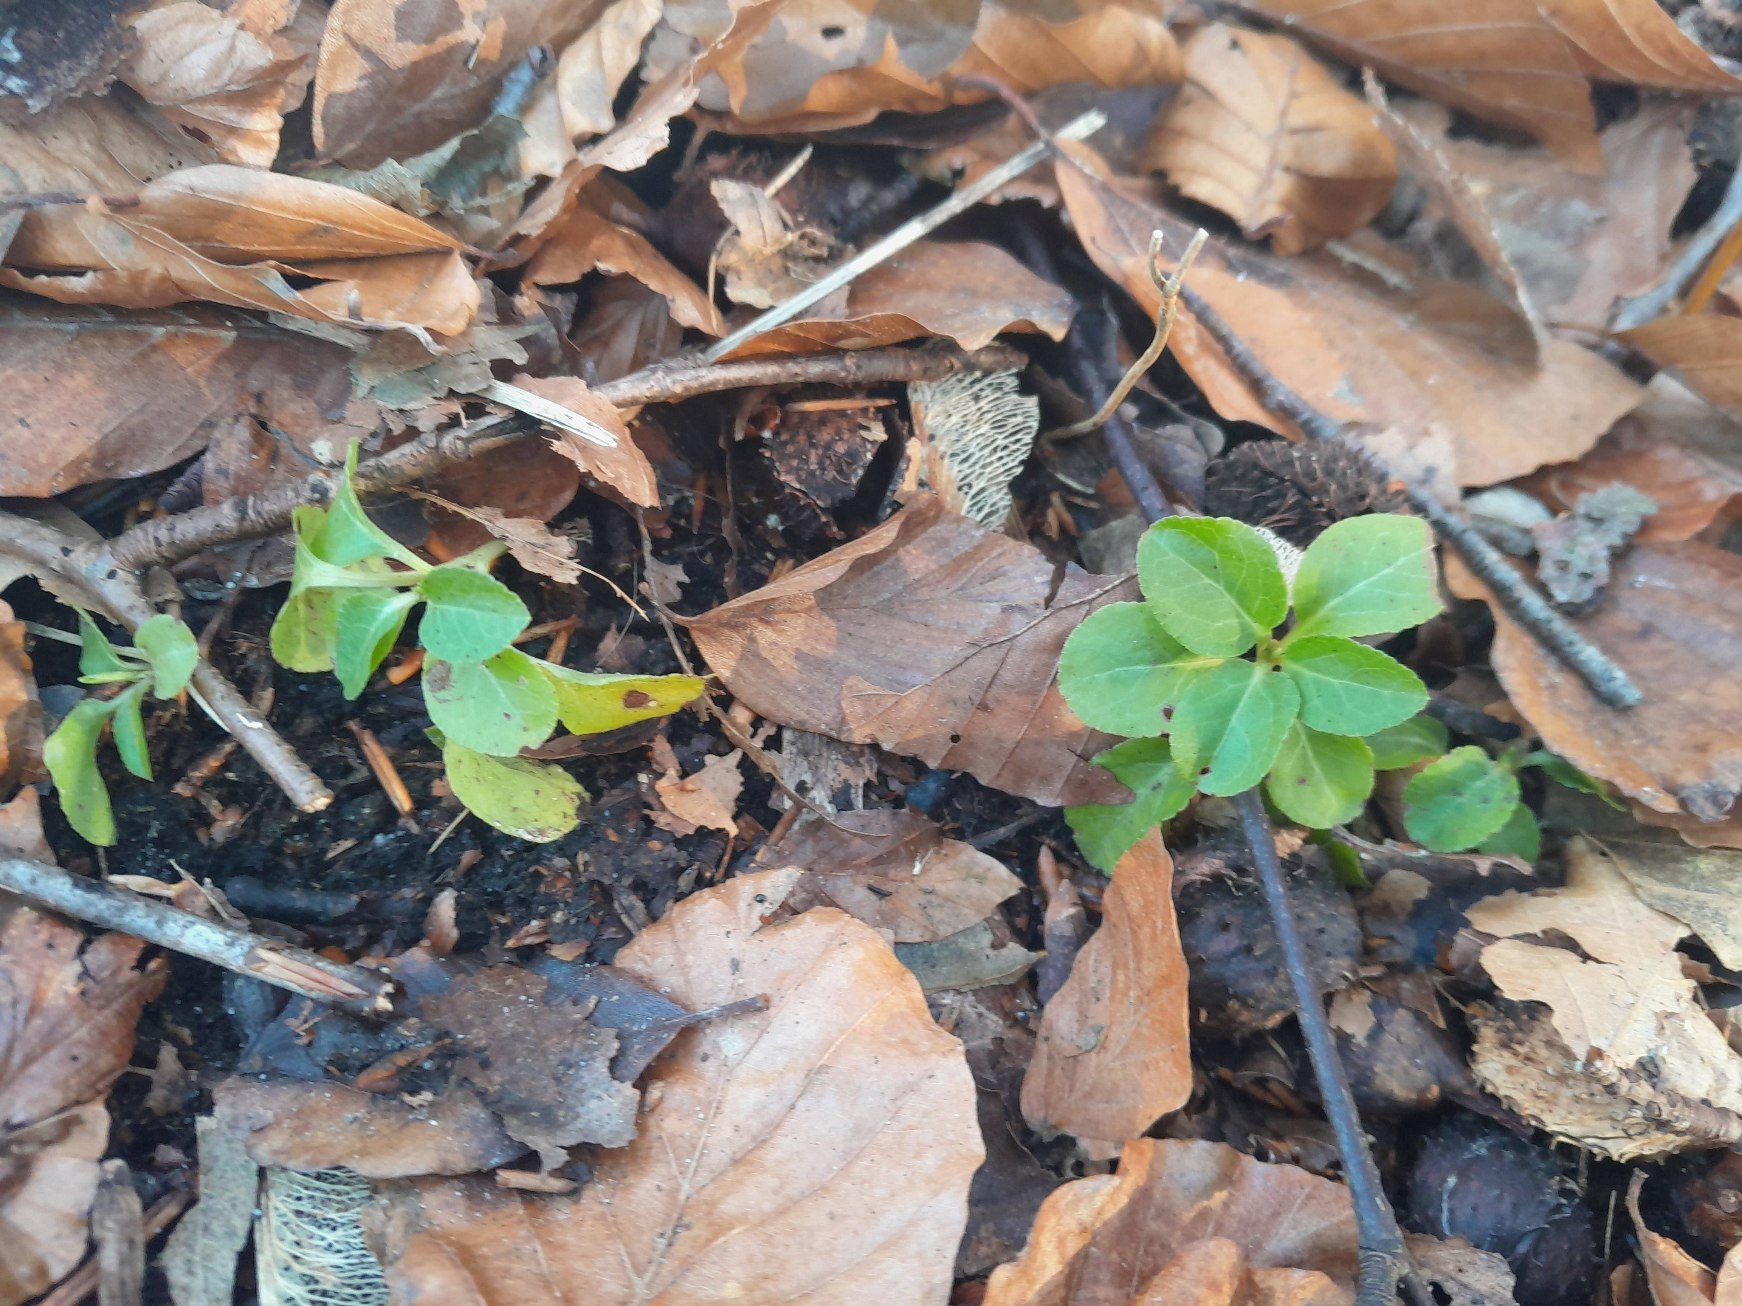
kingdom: Plantae
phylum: Tracheophyta
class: Magnoliopsida
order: Ericales
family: Ericaceae
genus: Pyrola
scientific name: Pyrola minor
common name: Liden vintergrøn
